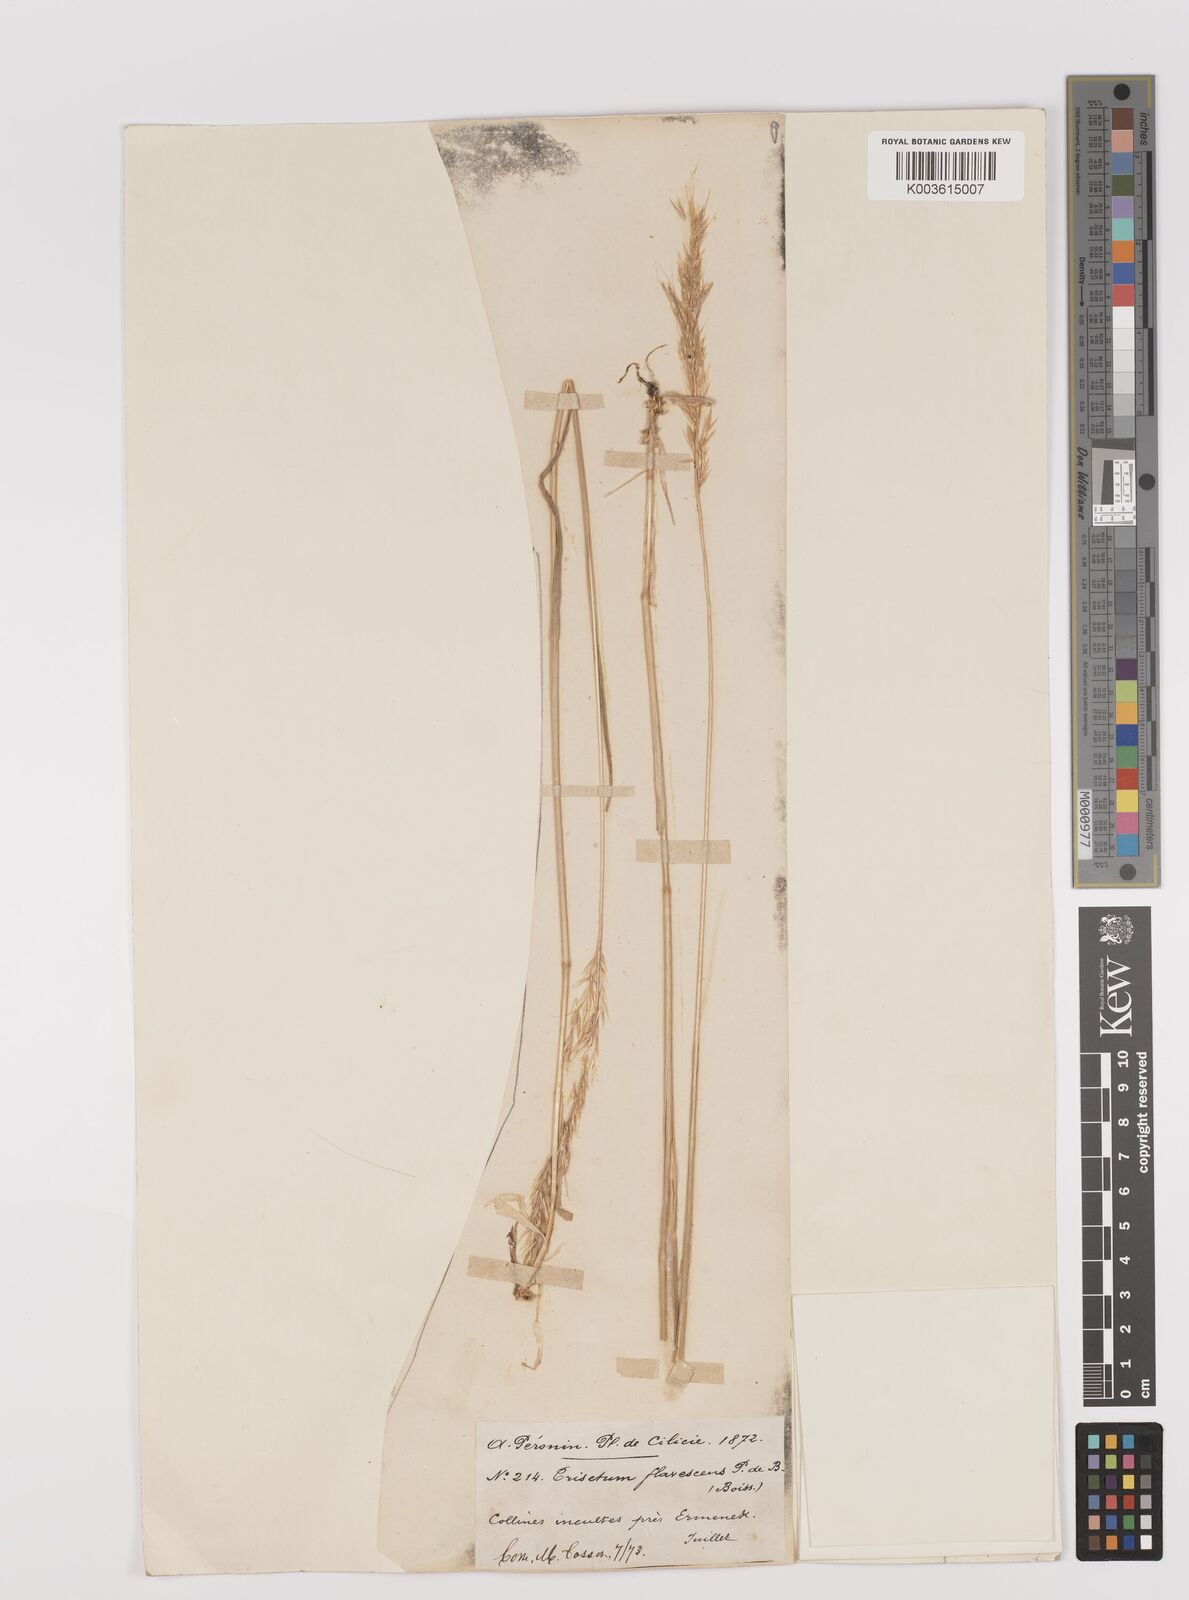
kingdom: Plantae
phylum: Tracheophyta
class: Liliopsida
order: Poales
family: Poaceae
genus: Trisetum
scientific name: Trisetum flavescens
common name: Yellow oat-grass
